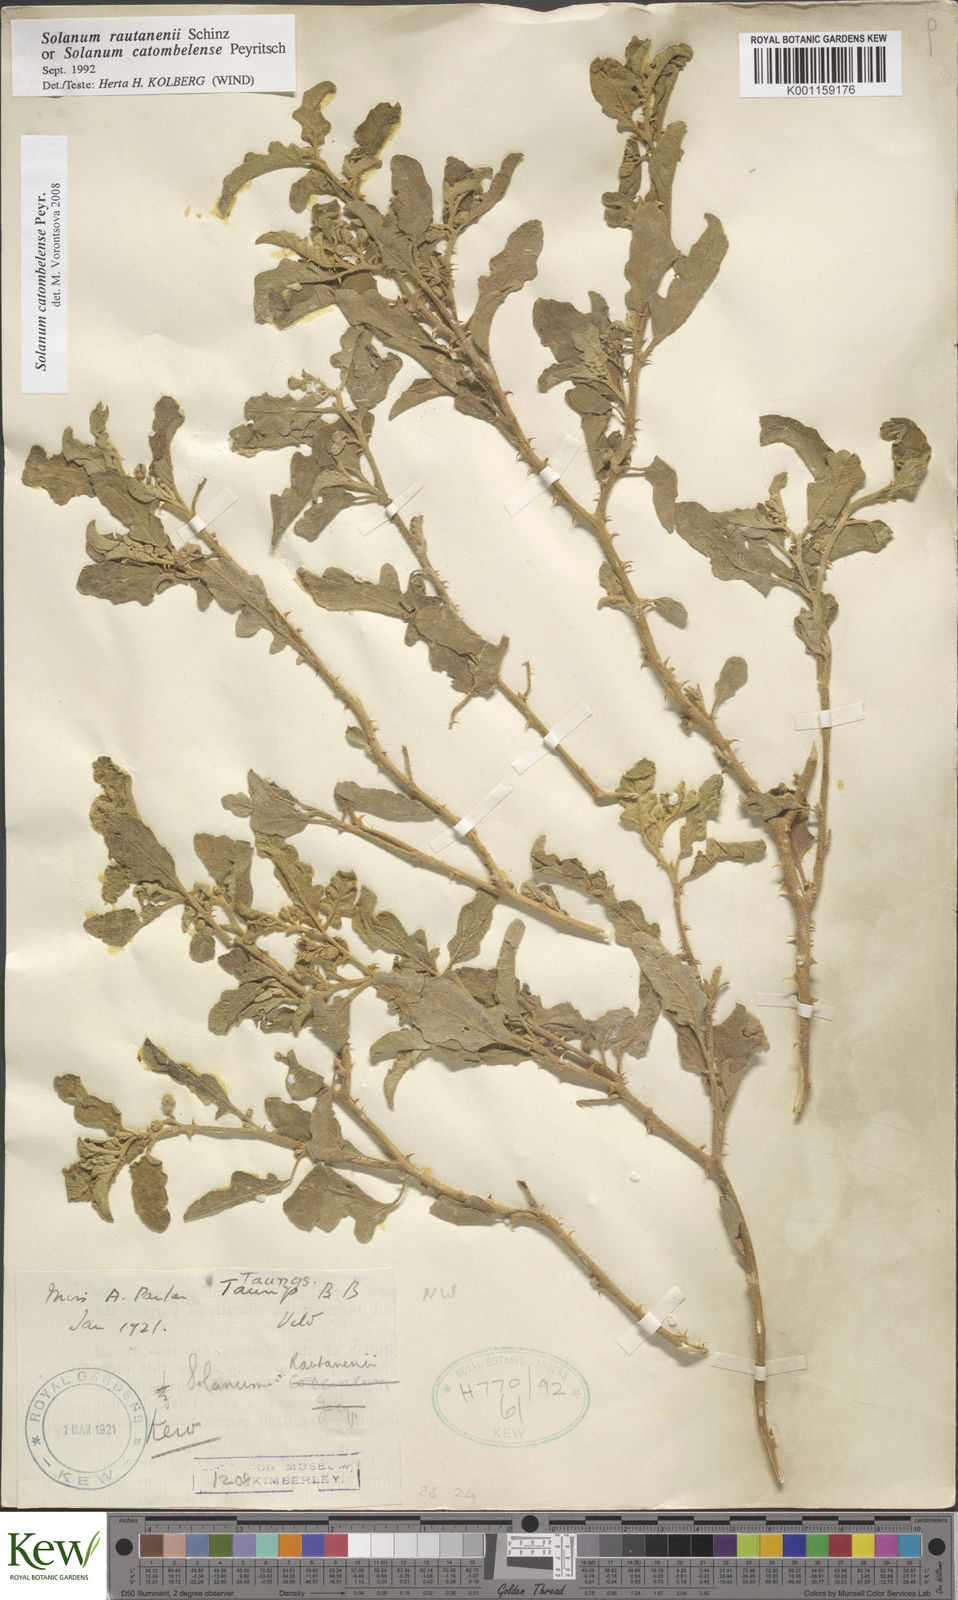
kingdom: Plantae
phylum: Tracheophyta
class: Magnoliopsida
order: Solanales
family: Solanaceae
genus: Solanum
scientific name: Solanum catombelense
